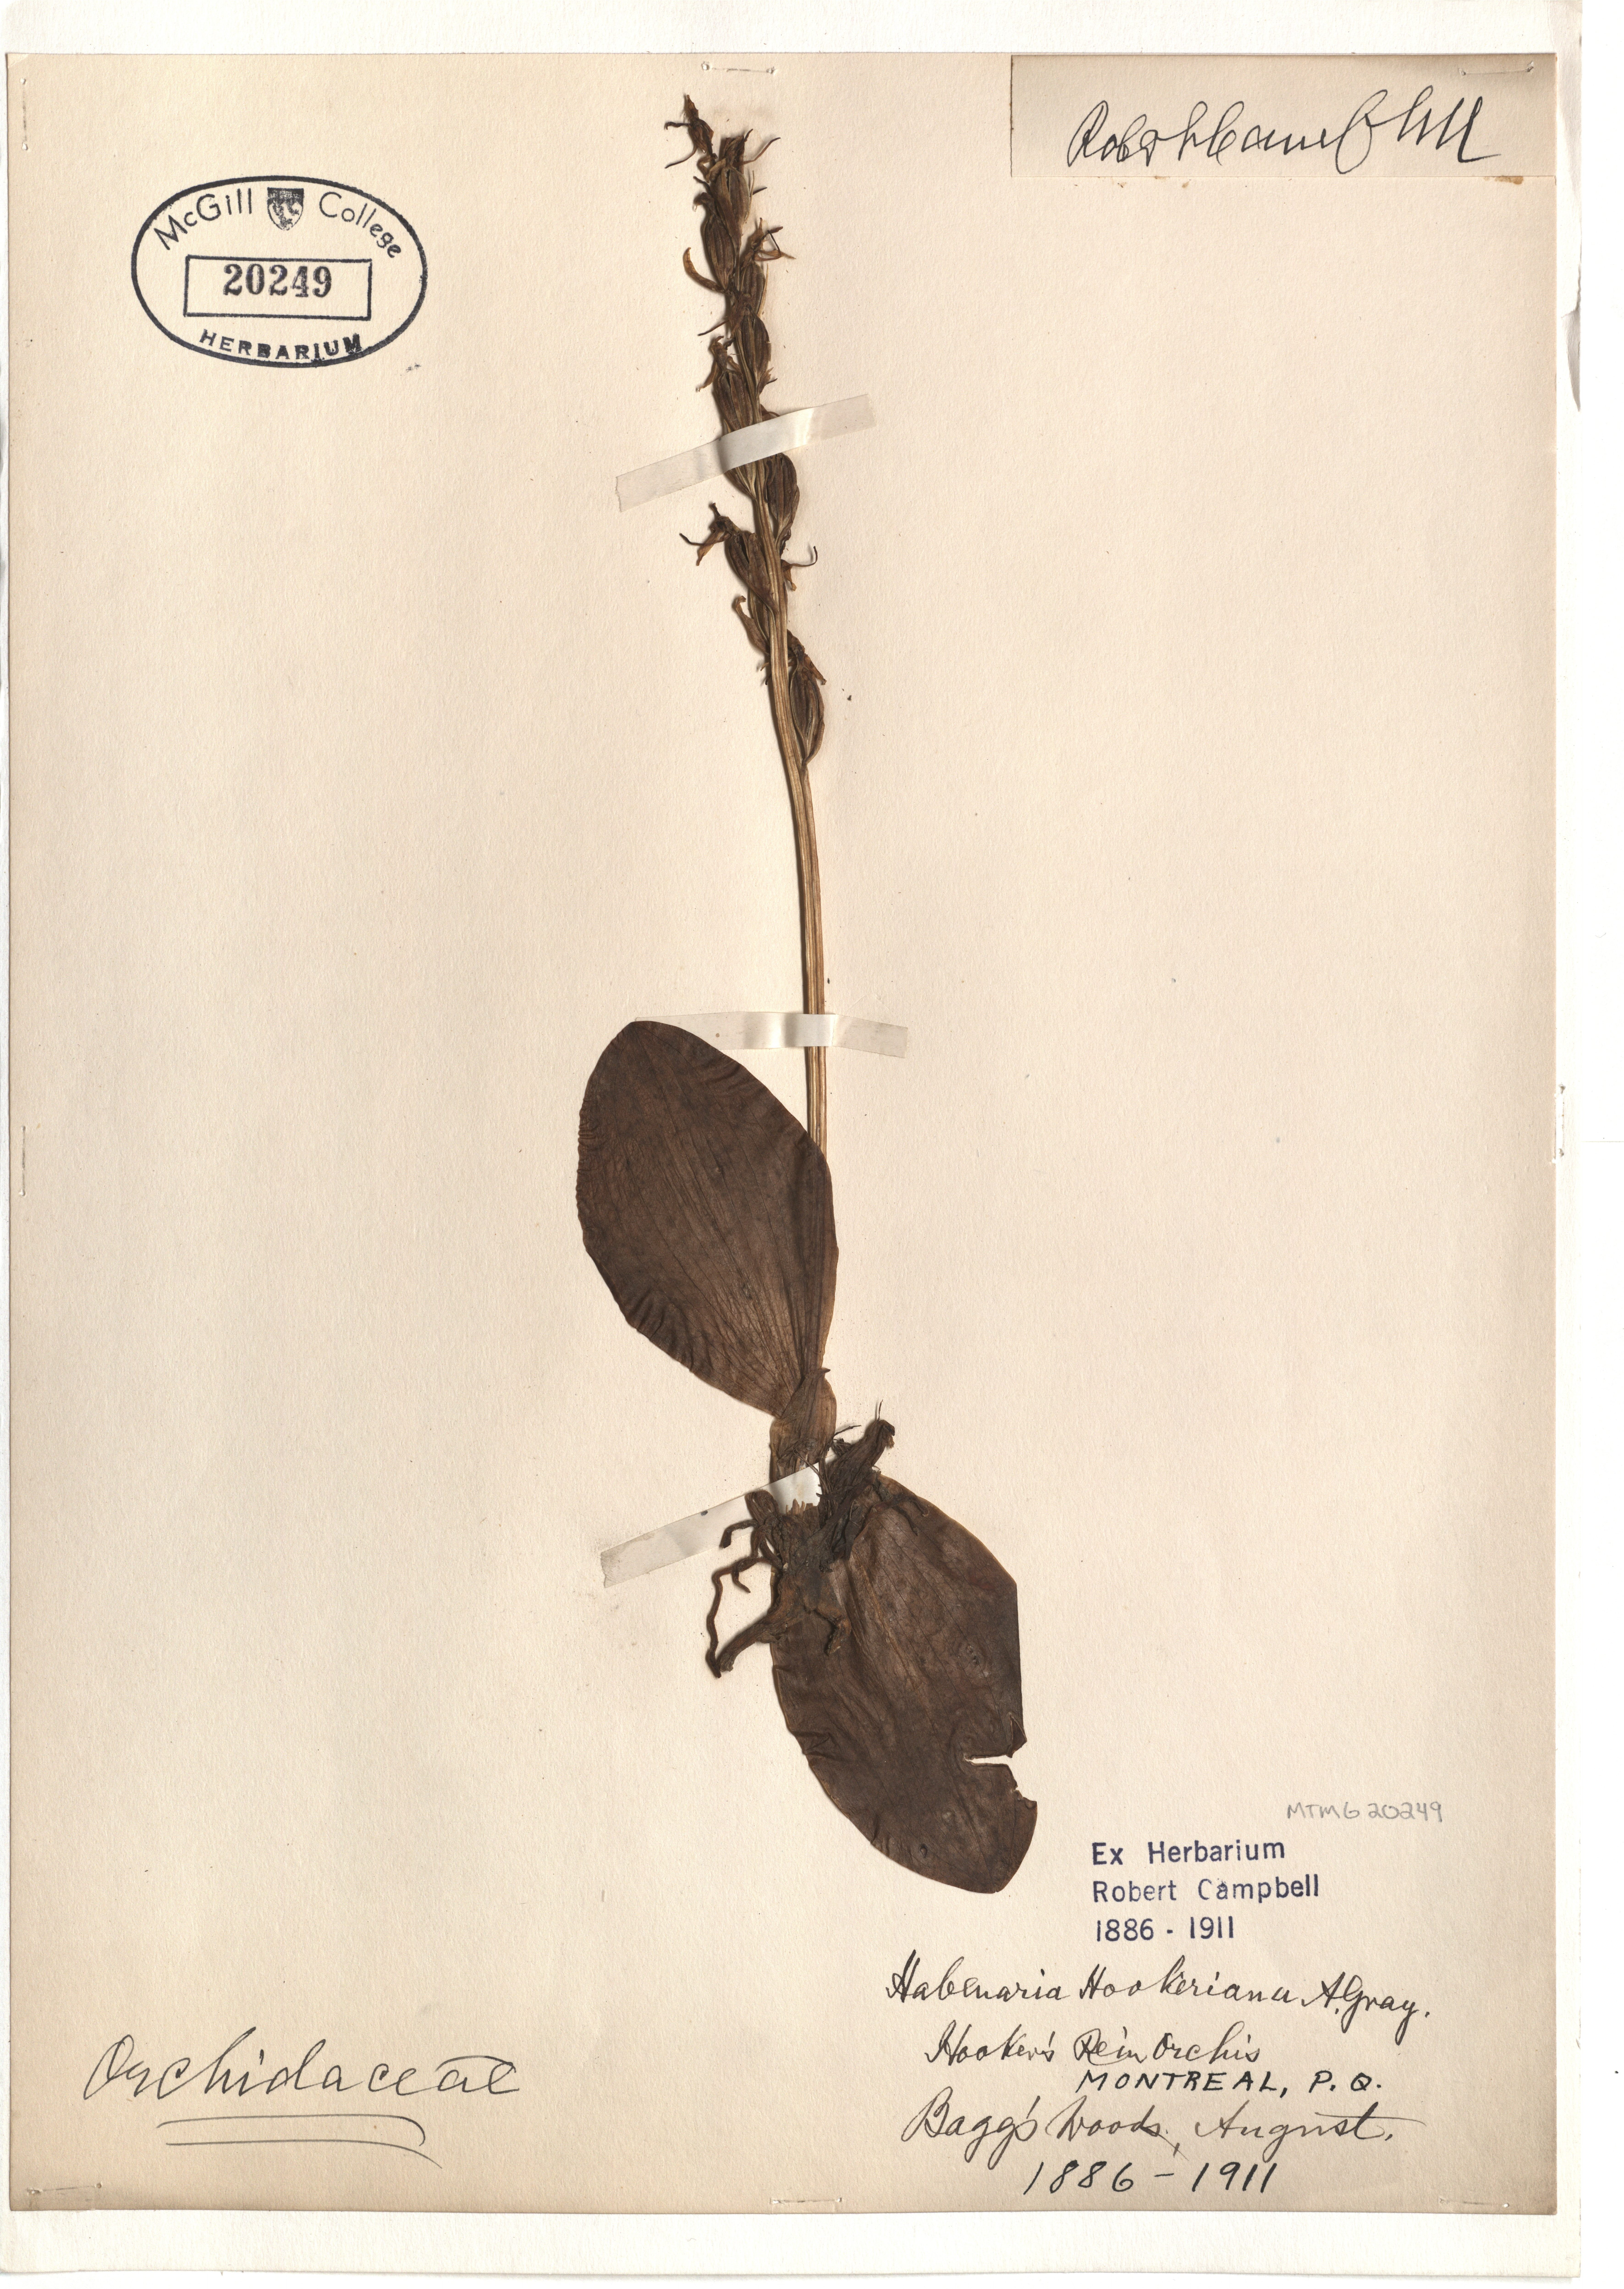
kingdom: Plantae
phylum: Tracheophyta
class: Liliopsida
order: Asparagales
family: Orchidaceae
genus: Platanthera
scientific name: Platanthera hookeri
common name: Hooker's orchid
